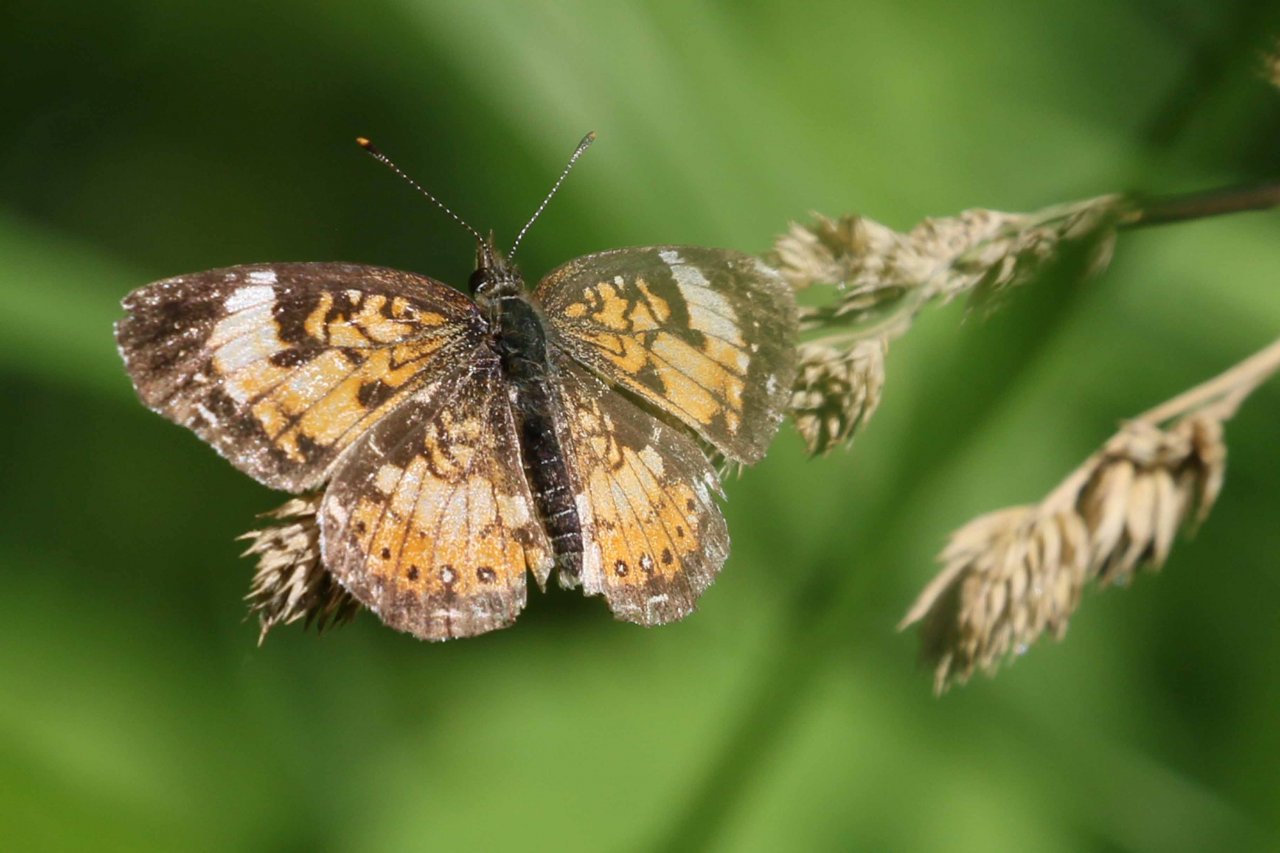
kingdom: Animalia
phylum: Arthropoda
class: Insecta
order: Lepidoptera
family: Nymphalidae
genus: Chlosyne
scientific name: Chlosyne
